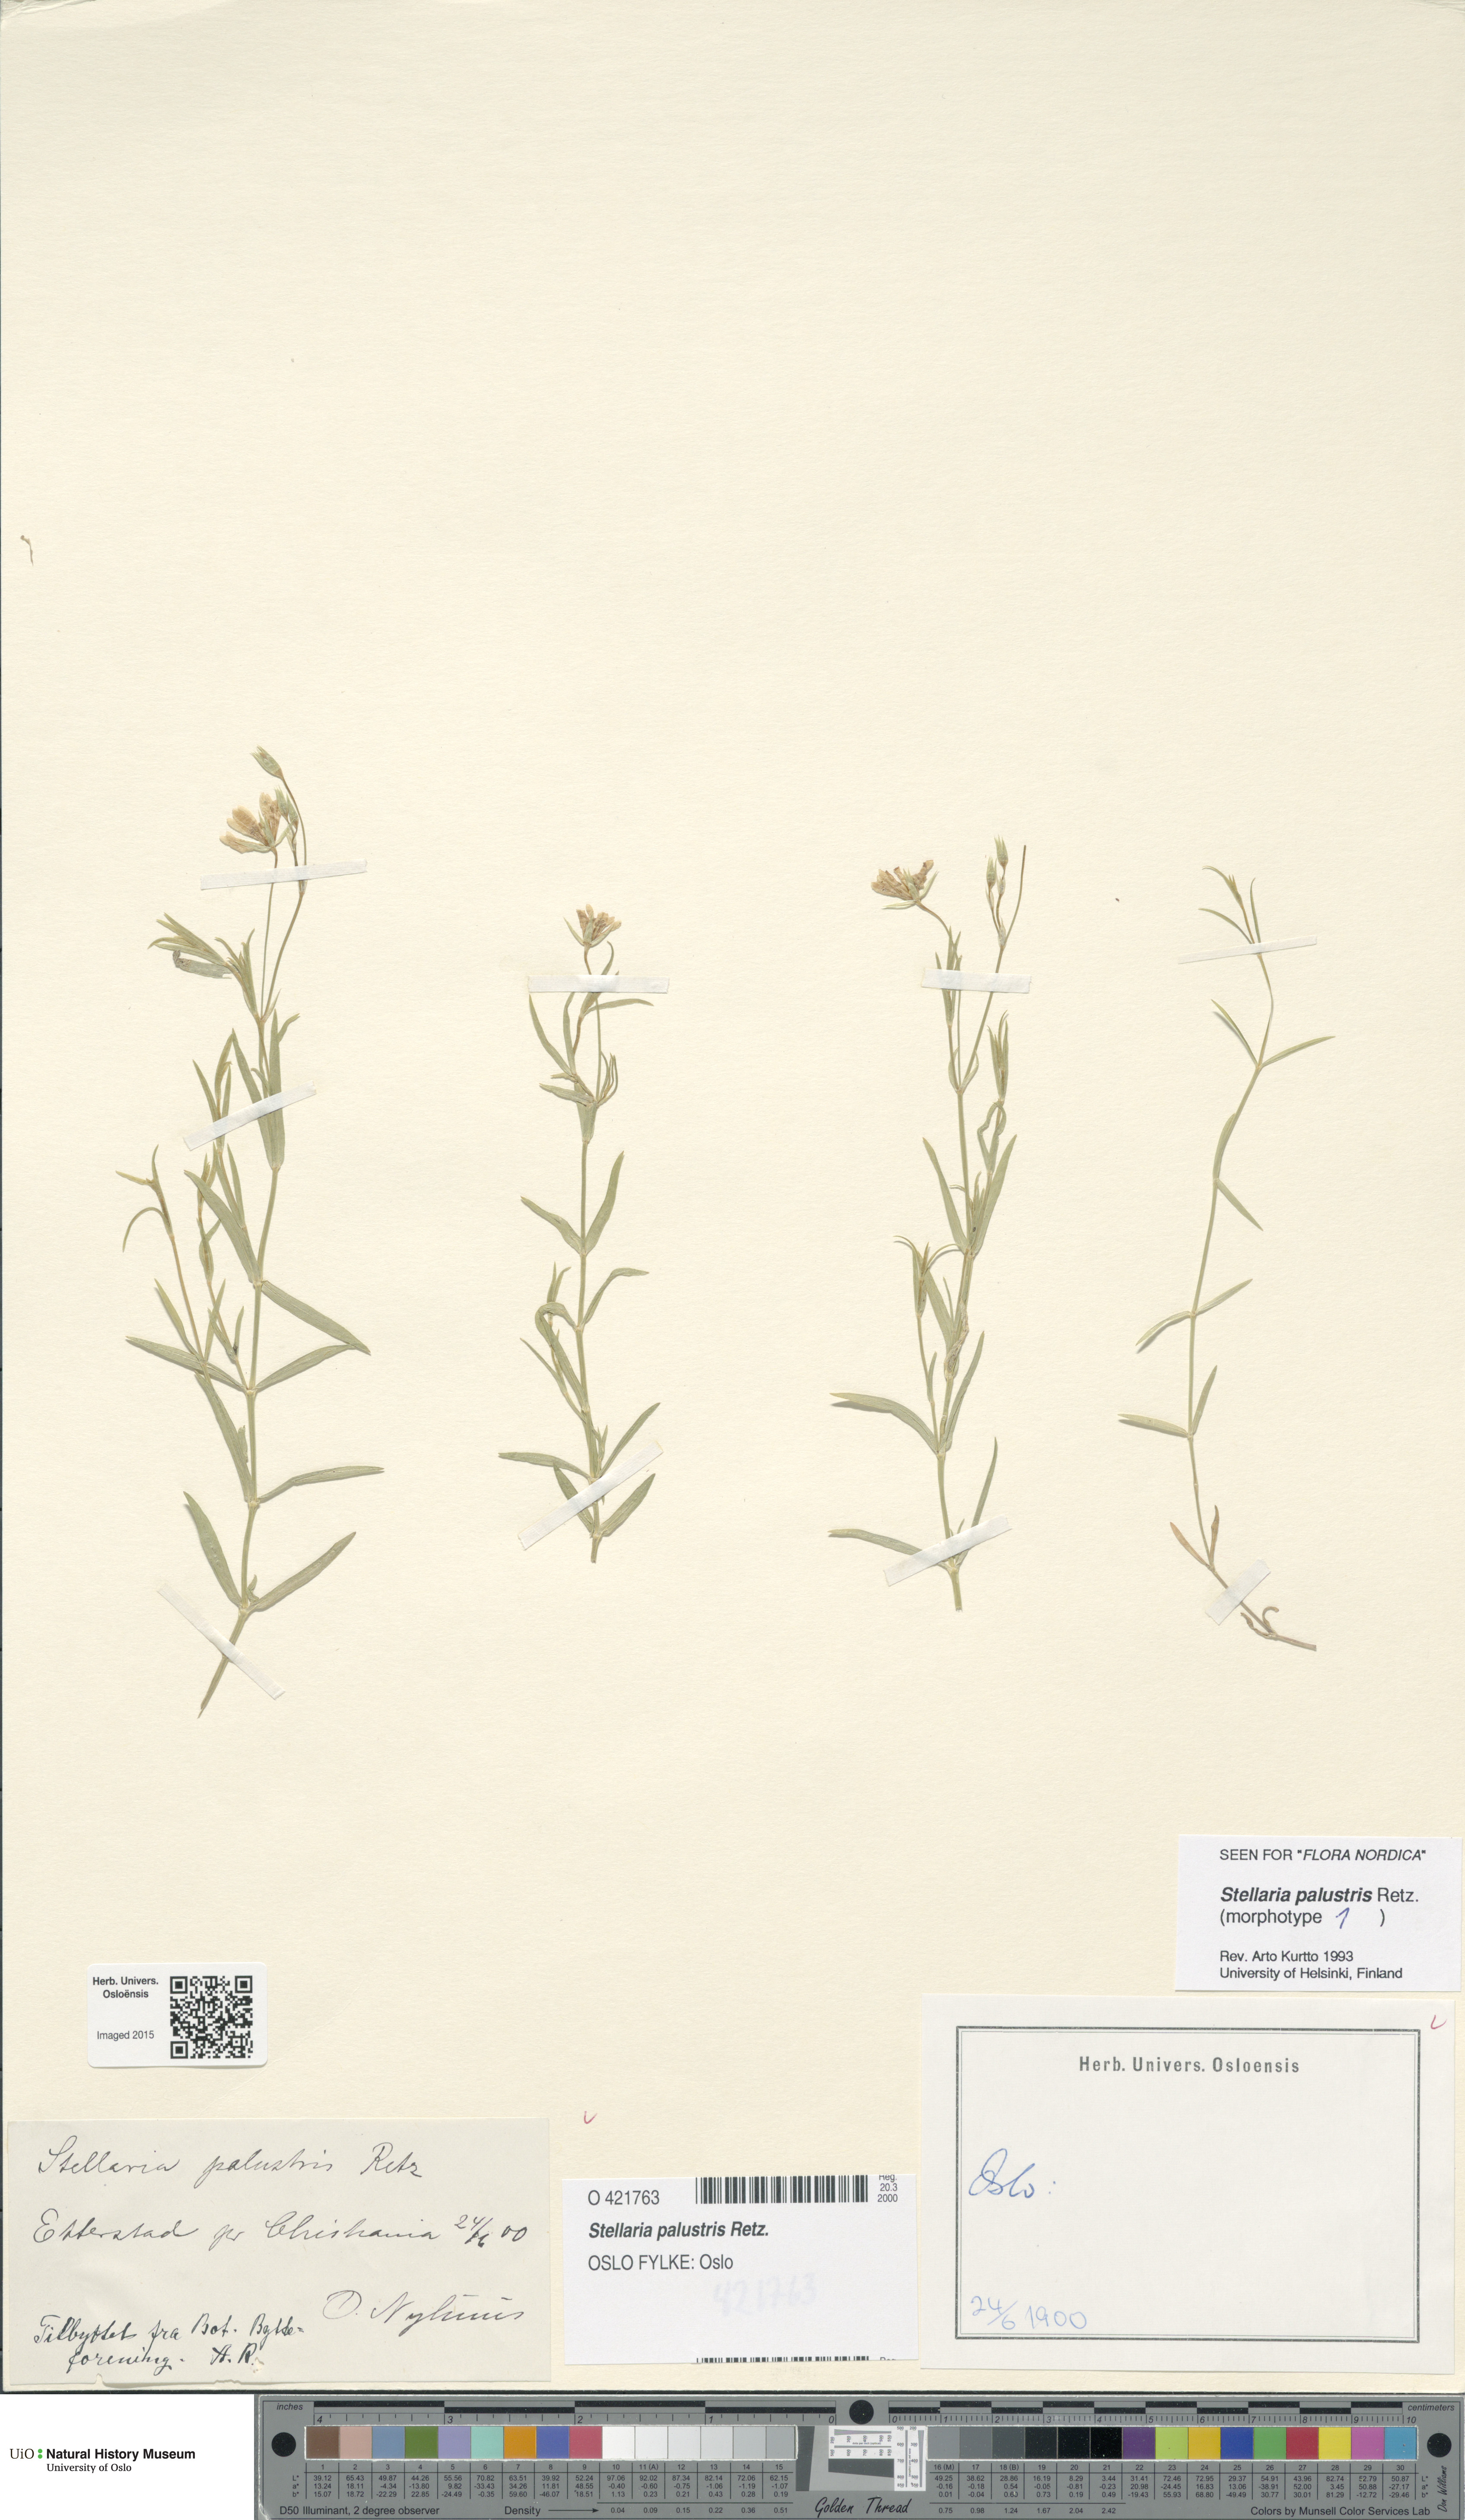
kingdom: Plantae
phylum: Tracheophyta
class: Magnoliopsida
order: Caryophyllales
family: Caryophyllaceae
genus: Stellaria
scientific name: Stellaria palustris
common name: Marsh stitchwort
